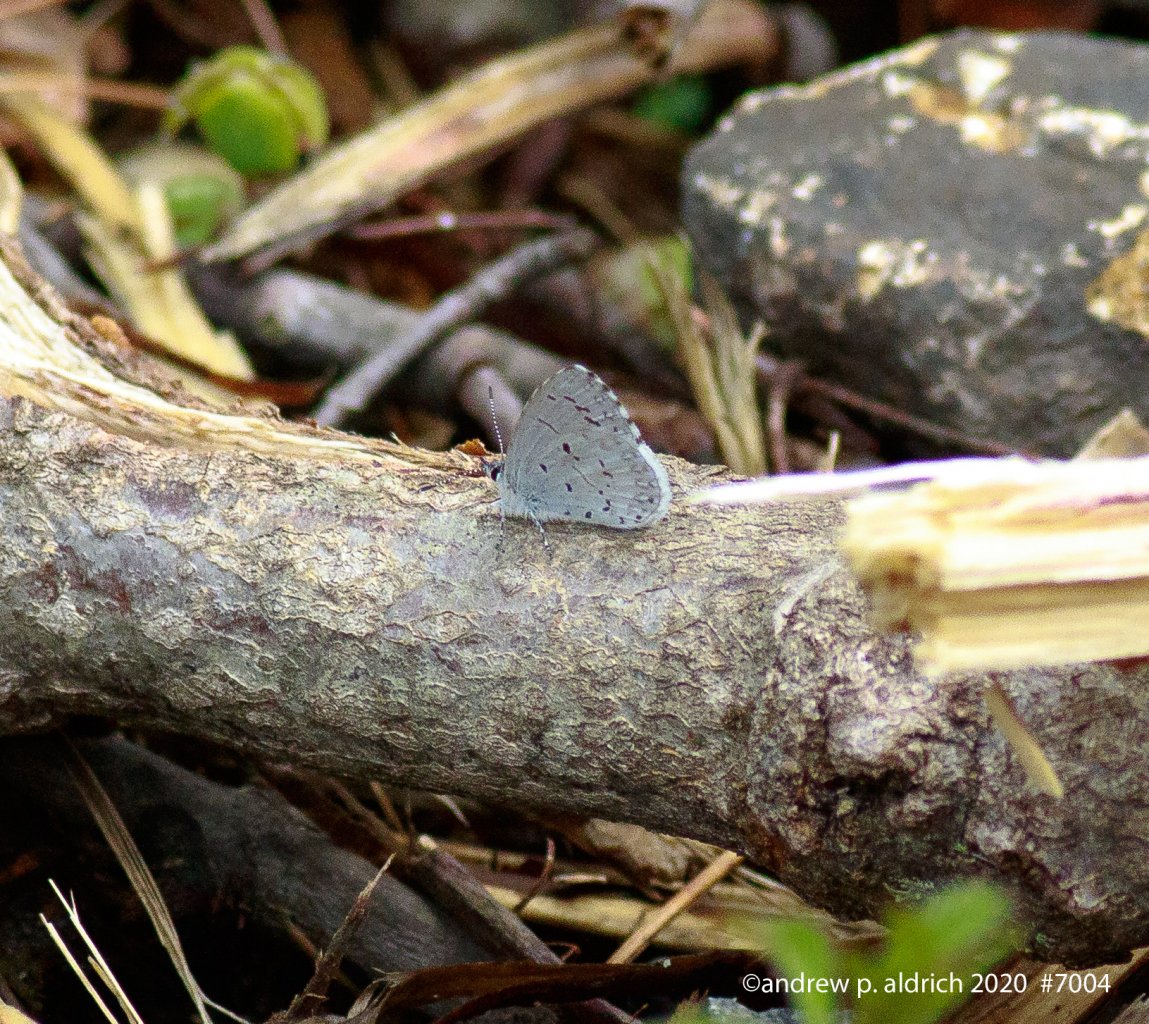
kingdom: Animalia
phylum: Arthropoda
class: Insecta
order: Lepidoptera
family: Lycaenidae
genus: Celastrina
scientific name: Celastrina ladon
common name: Spring Azure
